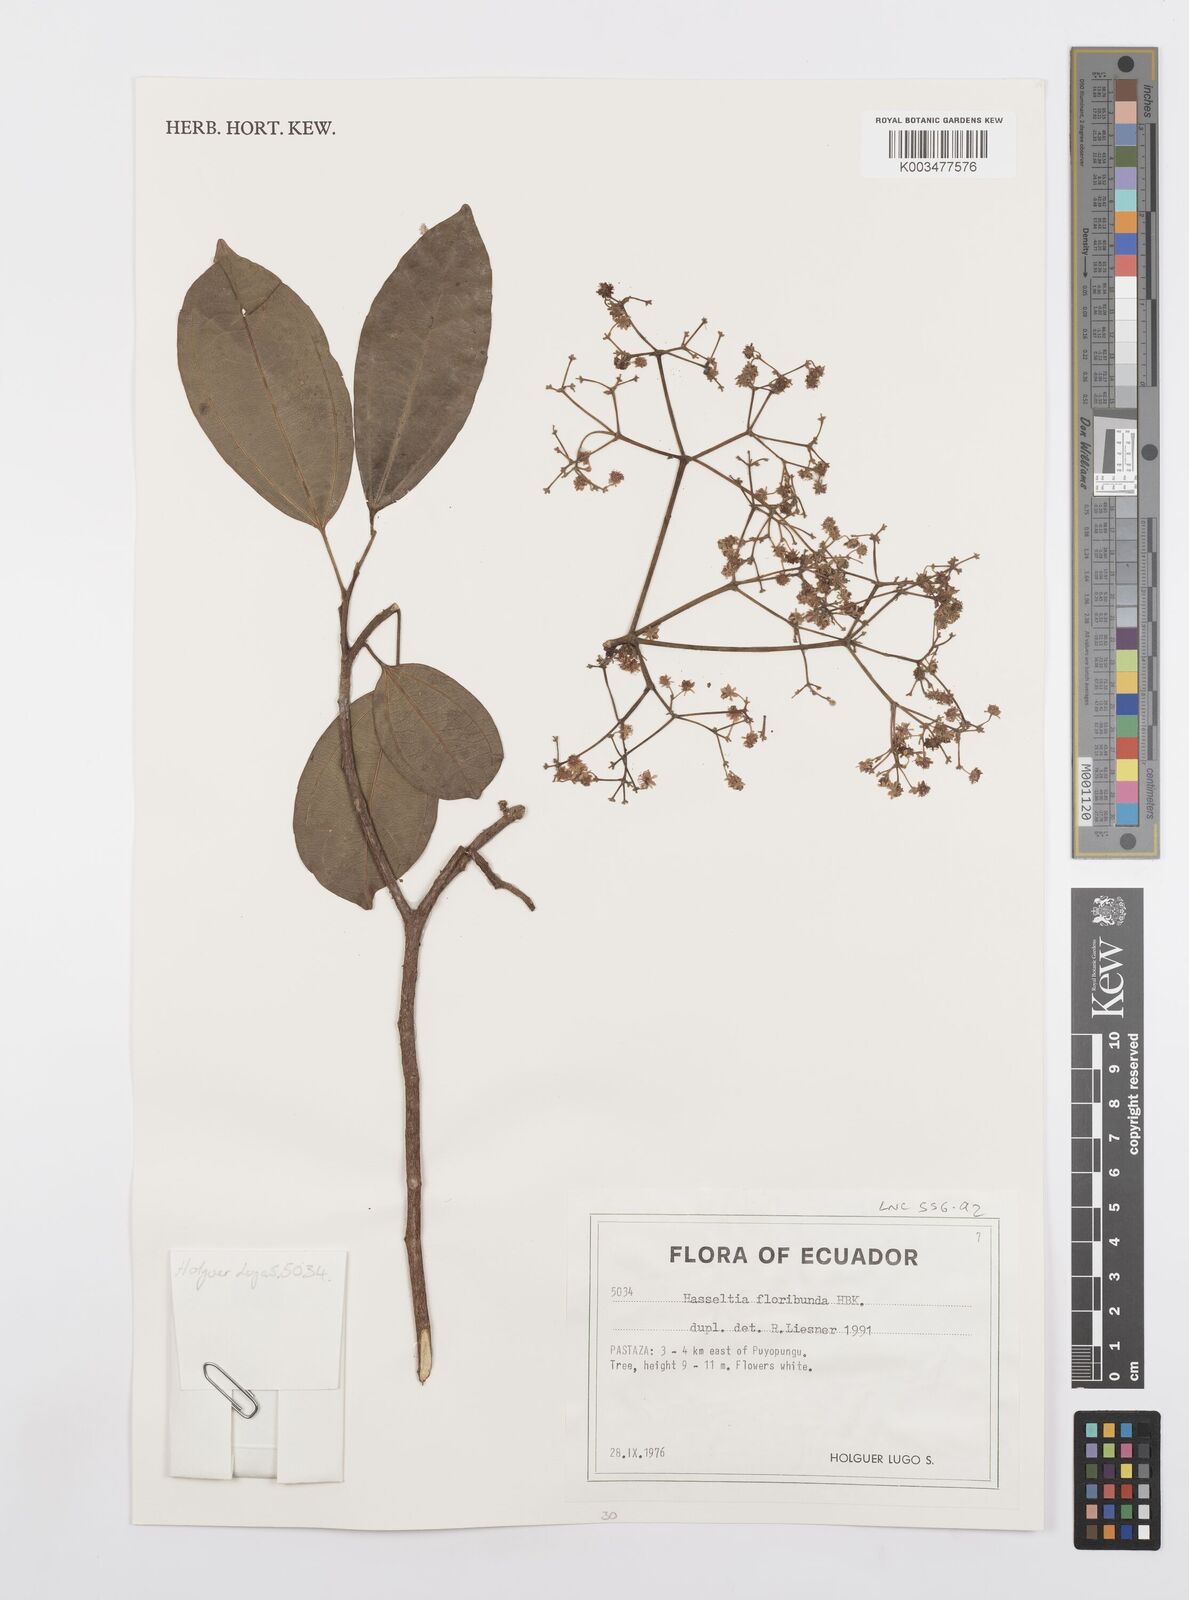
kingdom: Plantae
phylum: Tracheophyta
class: Magnoliopsida
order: Malpighiales
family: Salicaceae
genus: Hasseltia
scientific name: Hasseltia floribunda
